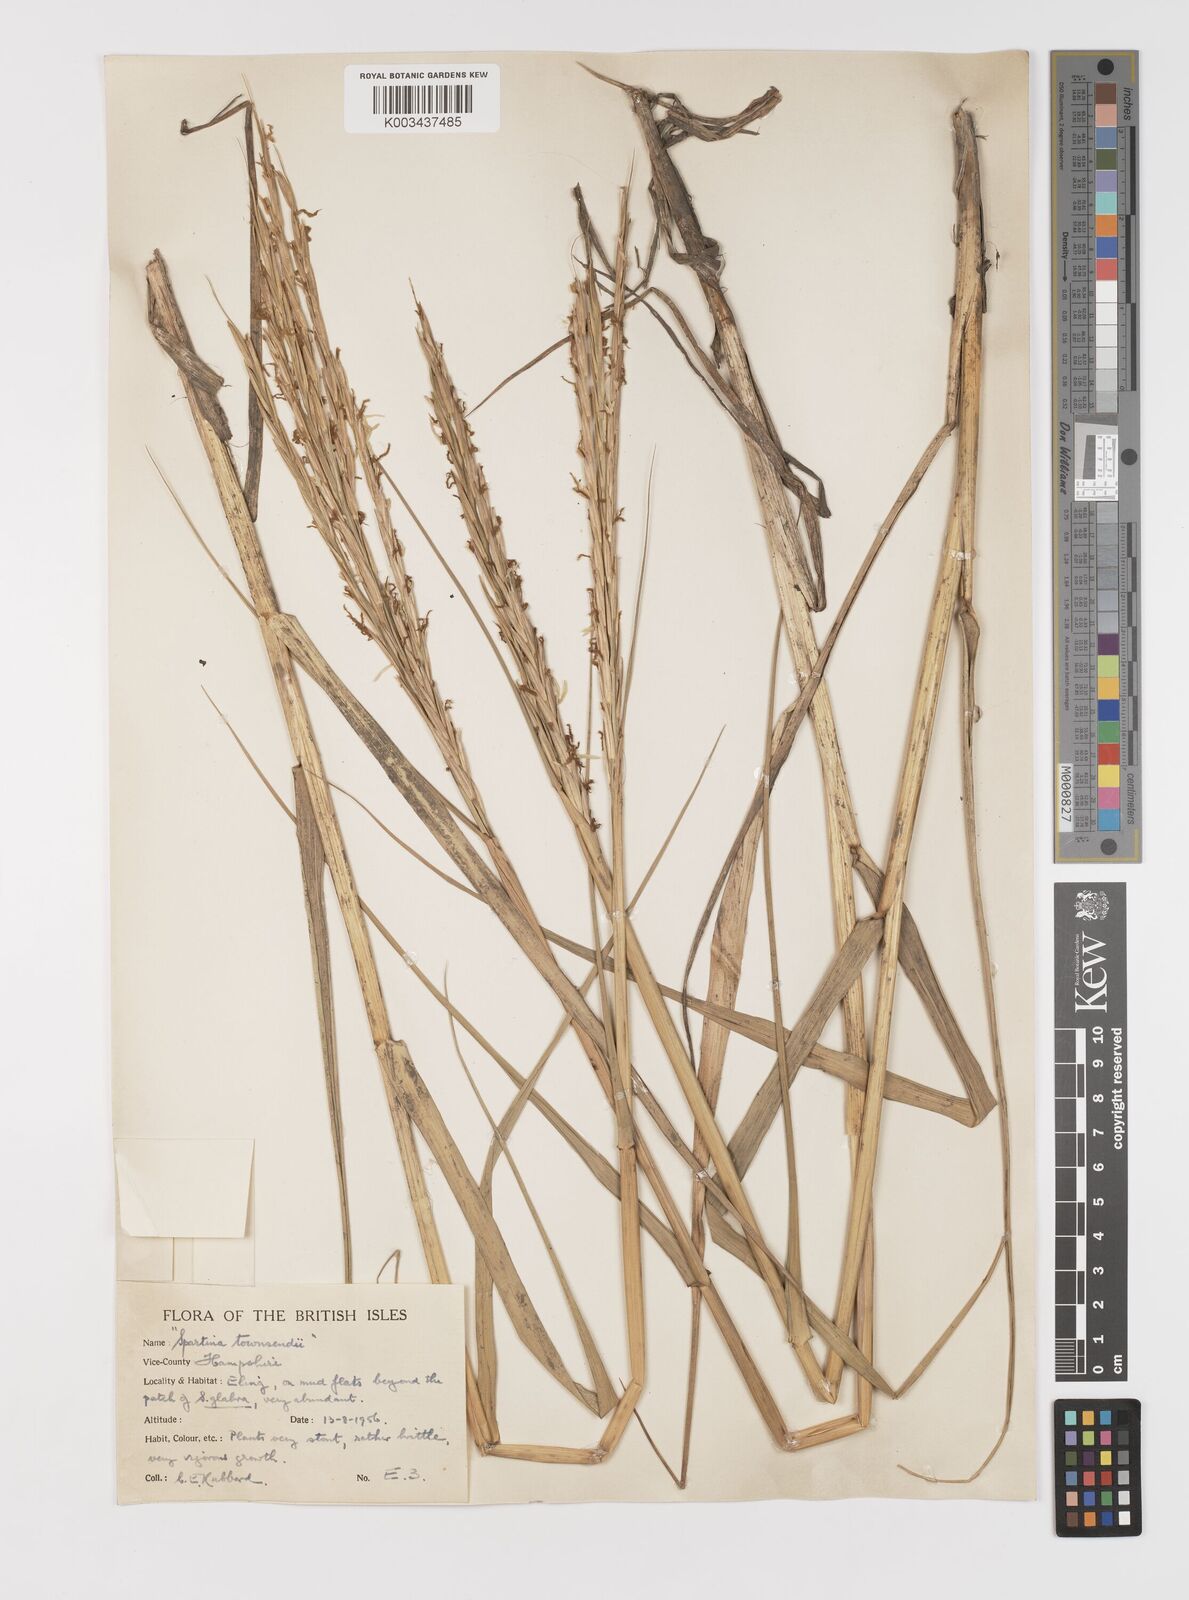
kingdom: Plantae
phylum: Tracheophyta
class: Liliopsida
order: Poales
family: Poaceae
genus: Sporobolus
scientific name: Sporobolus anglicus
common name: English cordgrass
